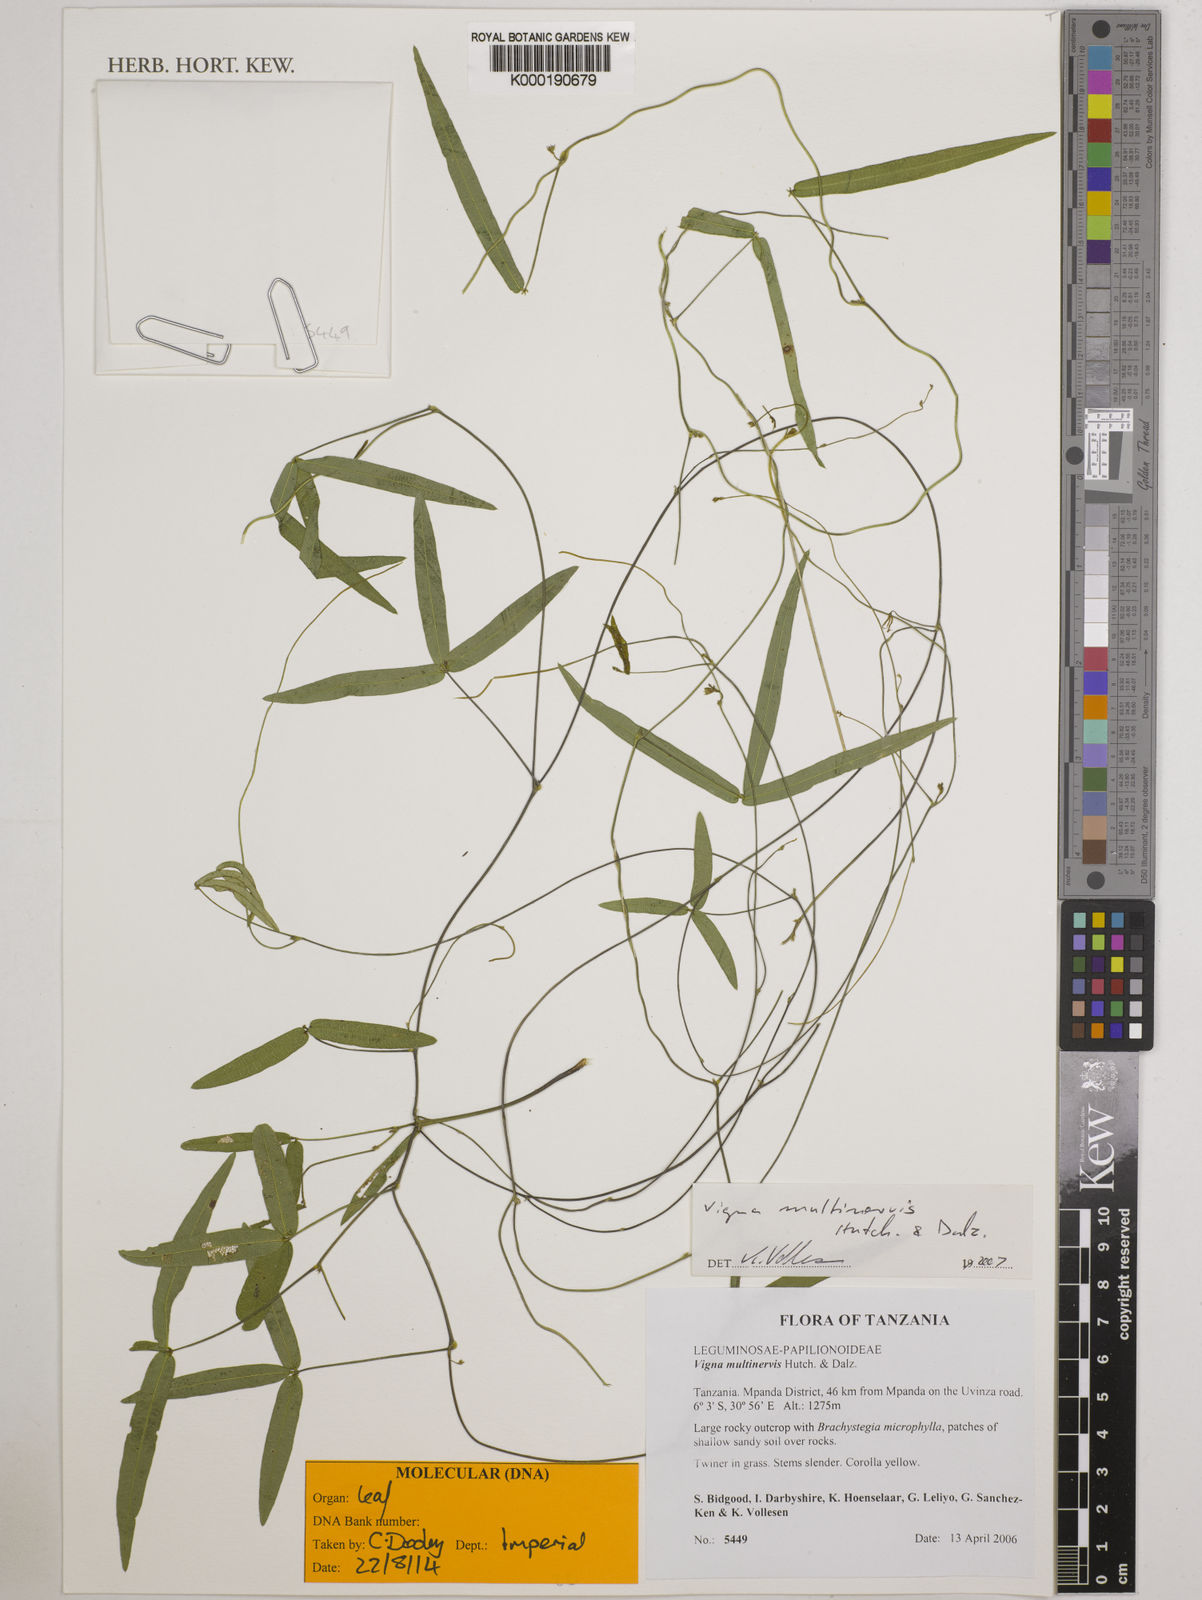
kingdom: Plantae
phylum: Tracheophyta
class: Magnoliopsida
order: Fabales
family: Fabaceae
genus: Vigna
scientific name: Vigna multinervis
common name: Fula-pulaar
